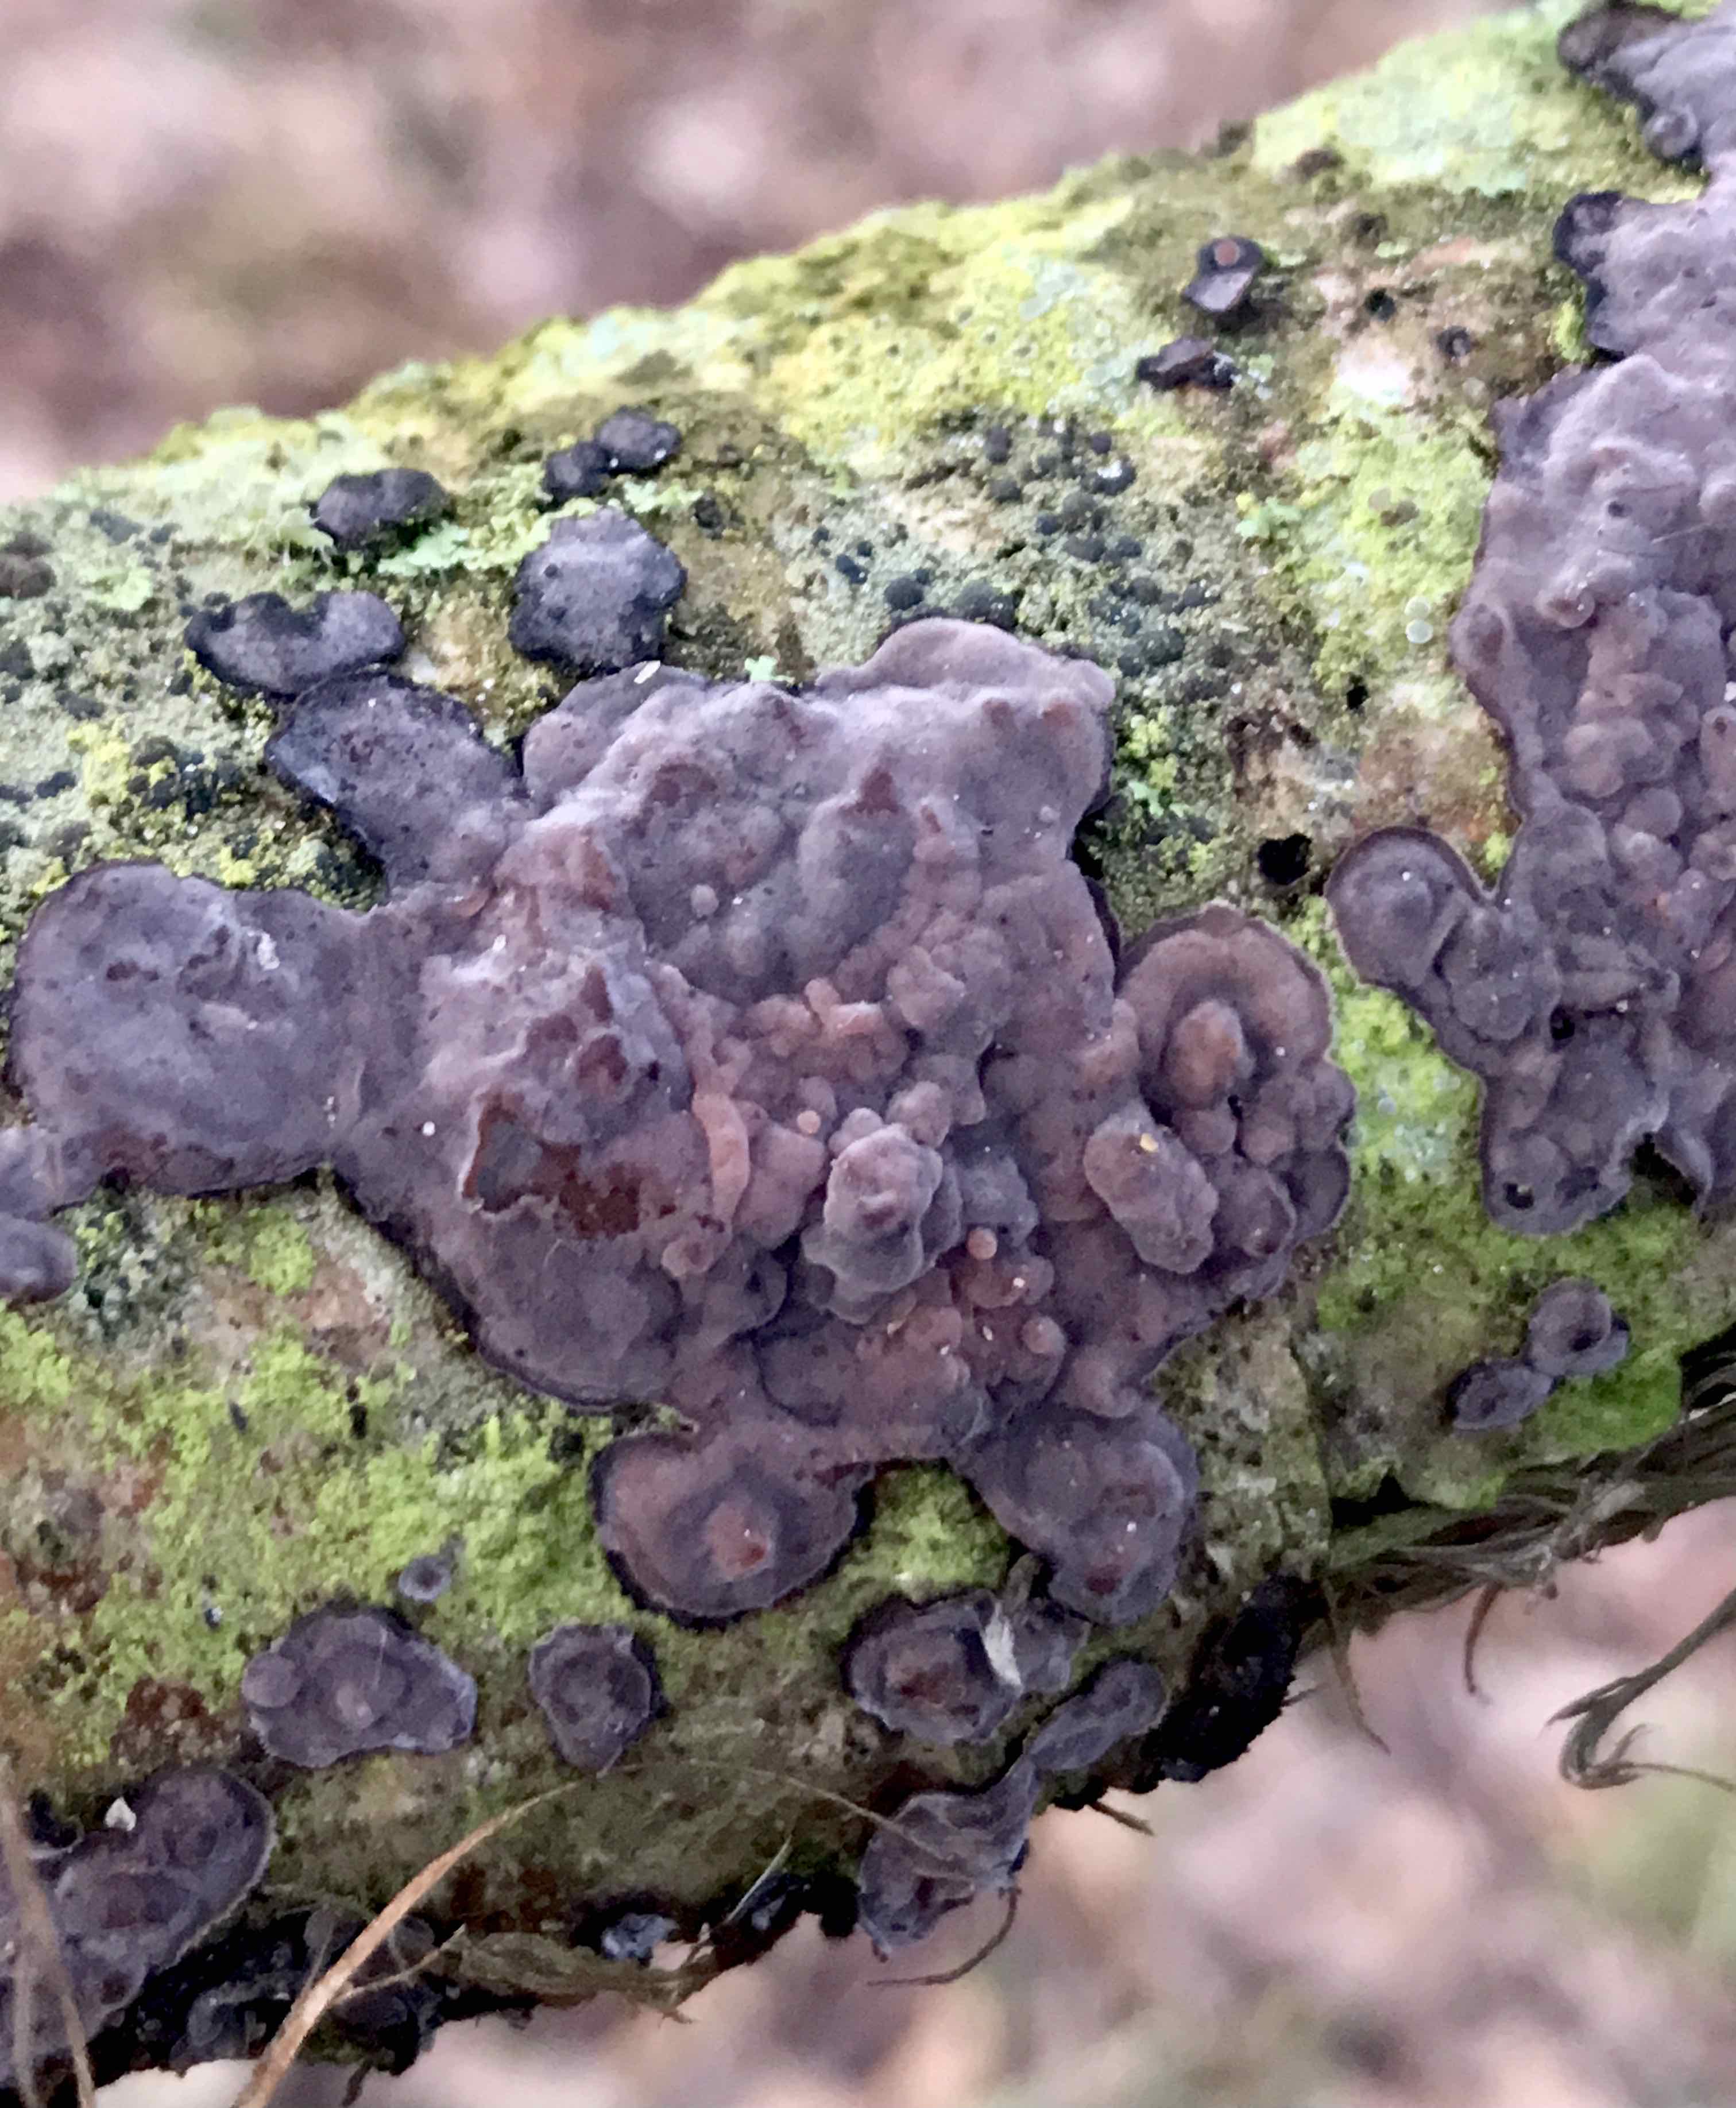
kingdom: Fungi
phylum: Basidiomycota
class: Agaricomycetes
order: Russulales
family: Peniophoraceae
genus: Peniophora
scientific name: Peniophora quercina
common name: ege-voksskind
